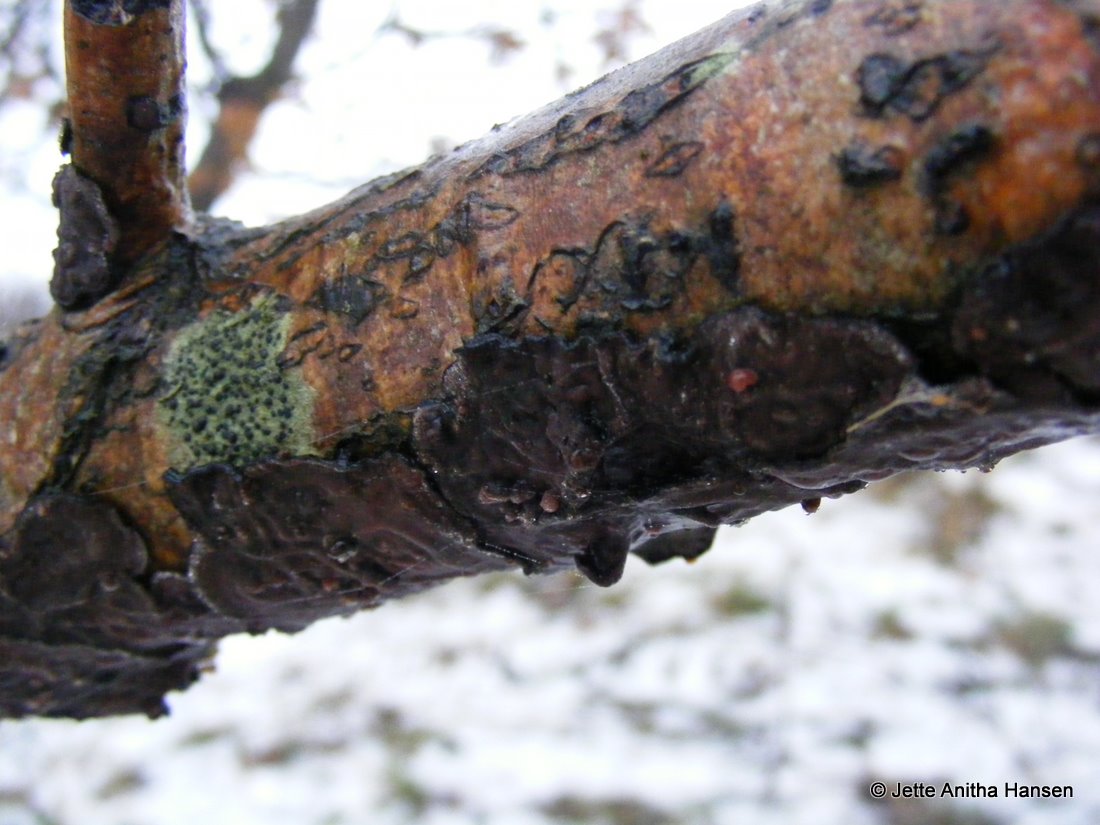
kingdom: Fungi
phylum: Basidiomycota
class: Agaricomycetes
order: Russulales
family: Peniophoraceae
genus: Peniophora
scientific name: Peniophora quercina
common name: ege-voksskind
